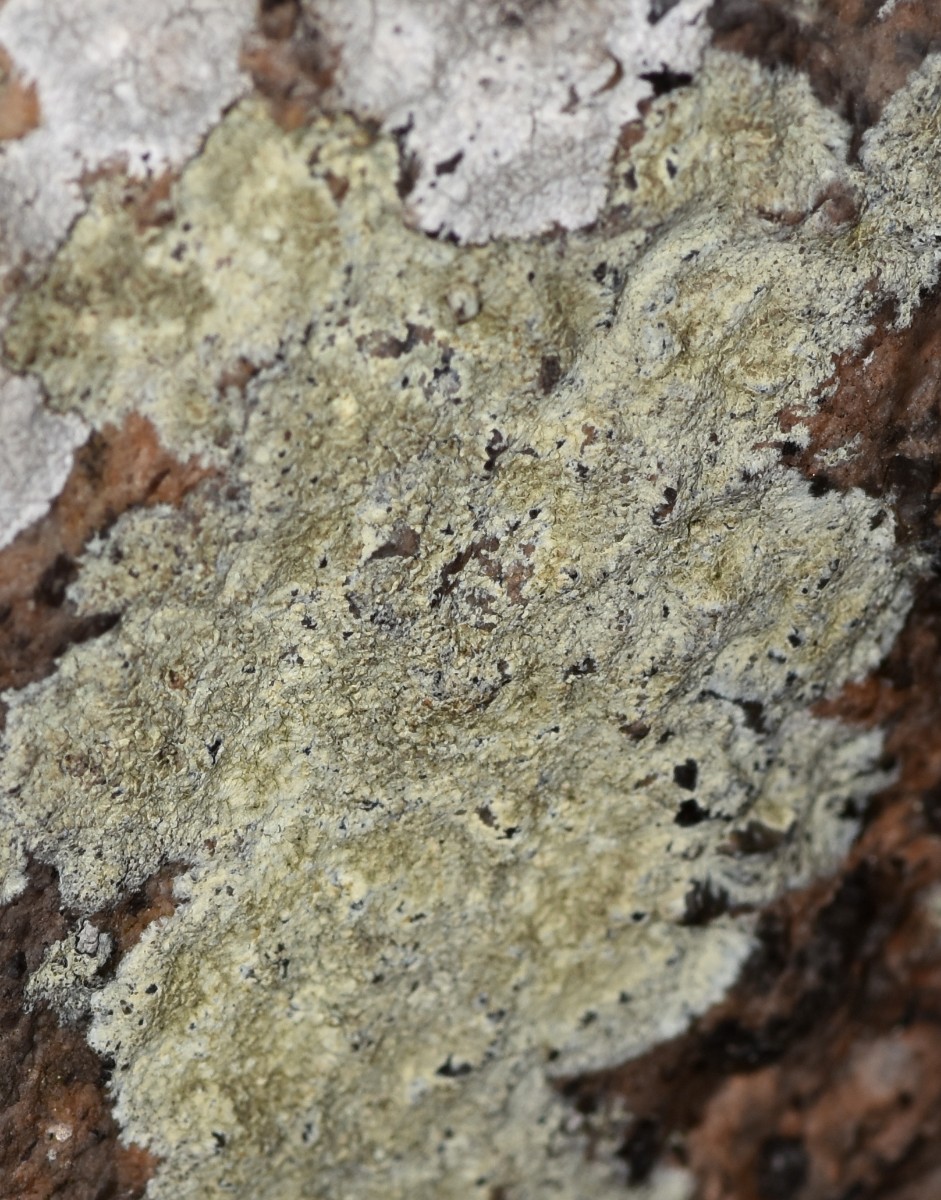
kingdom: Fungi
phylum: Ascomycota
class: Lecanoromycetes
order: Lecanorales
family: Lecanoraceae
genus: Glaucomaria
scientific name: Glaucomaria sulphurea
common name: svovlgul kantskivelav
